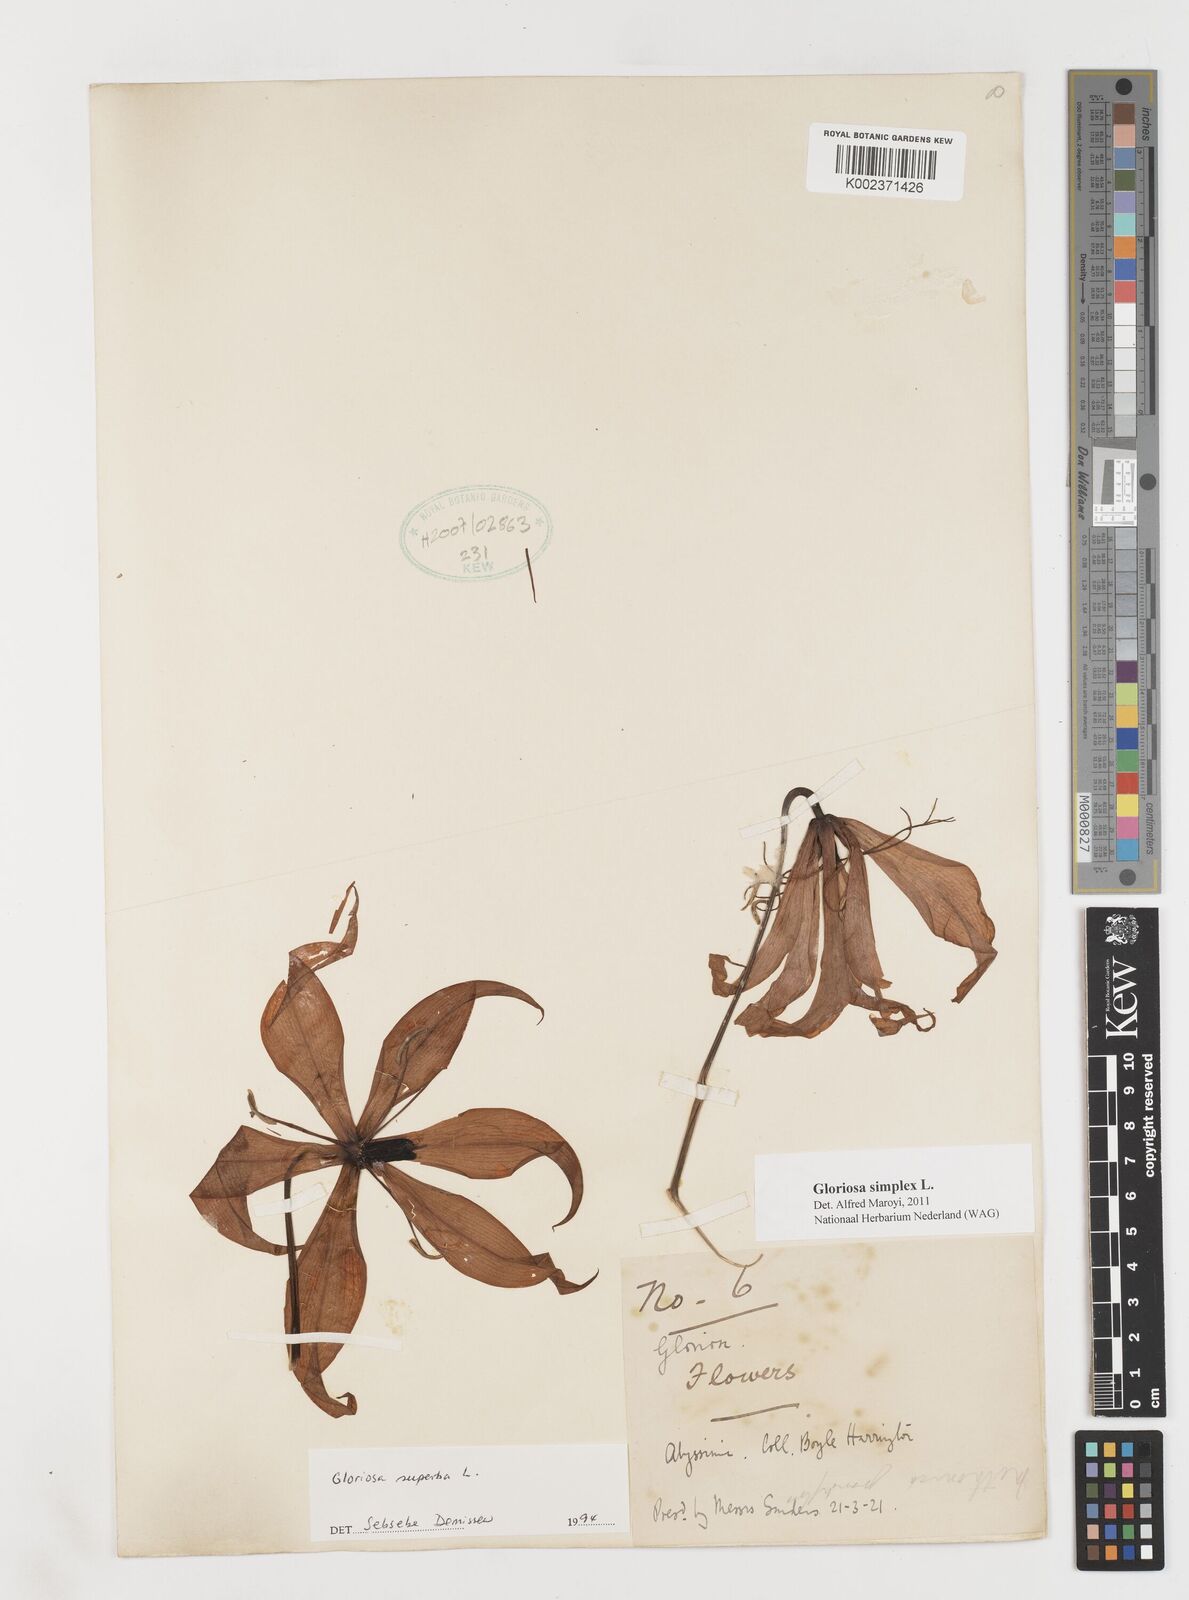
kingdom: Plantae
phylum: Tracheophyta
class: Liliopsida
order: Liliales
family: Colchicaceae
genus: Gloriosa
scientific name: Gloriosa simplex
